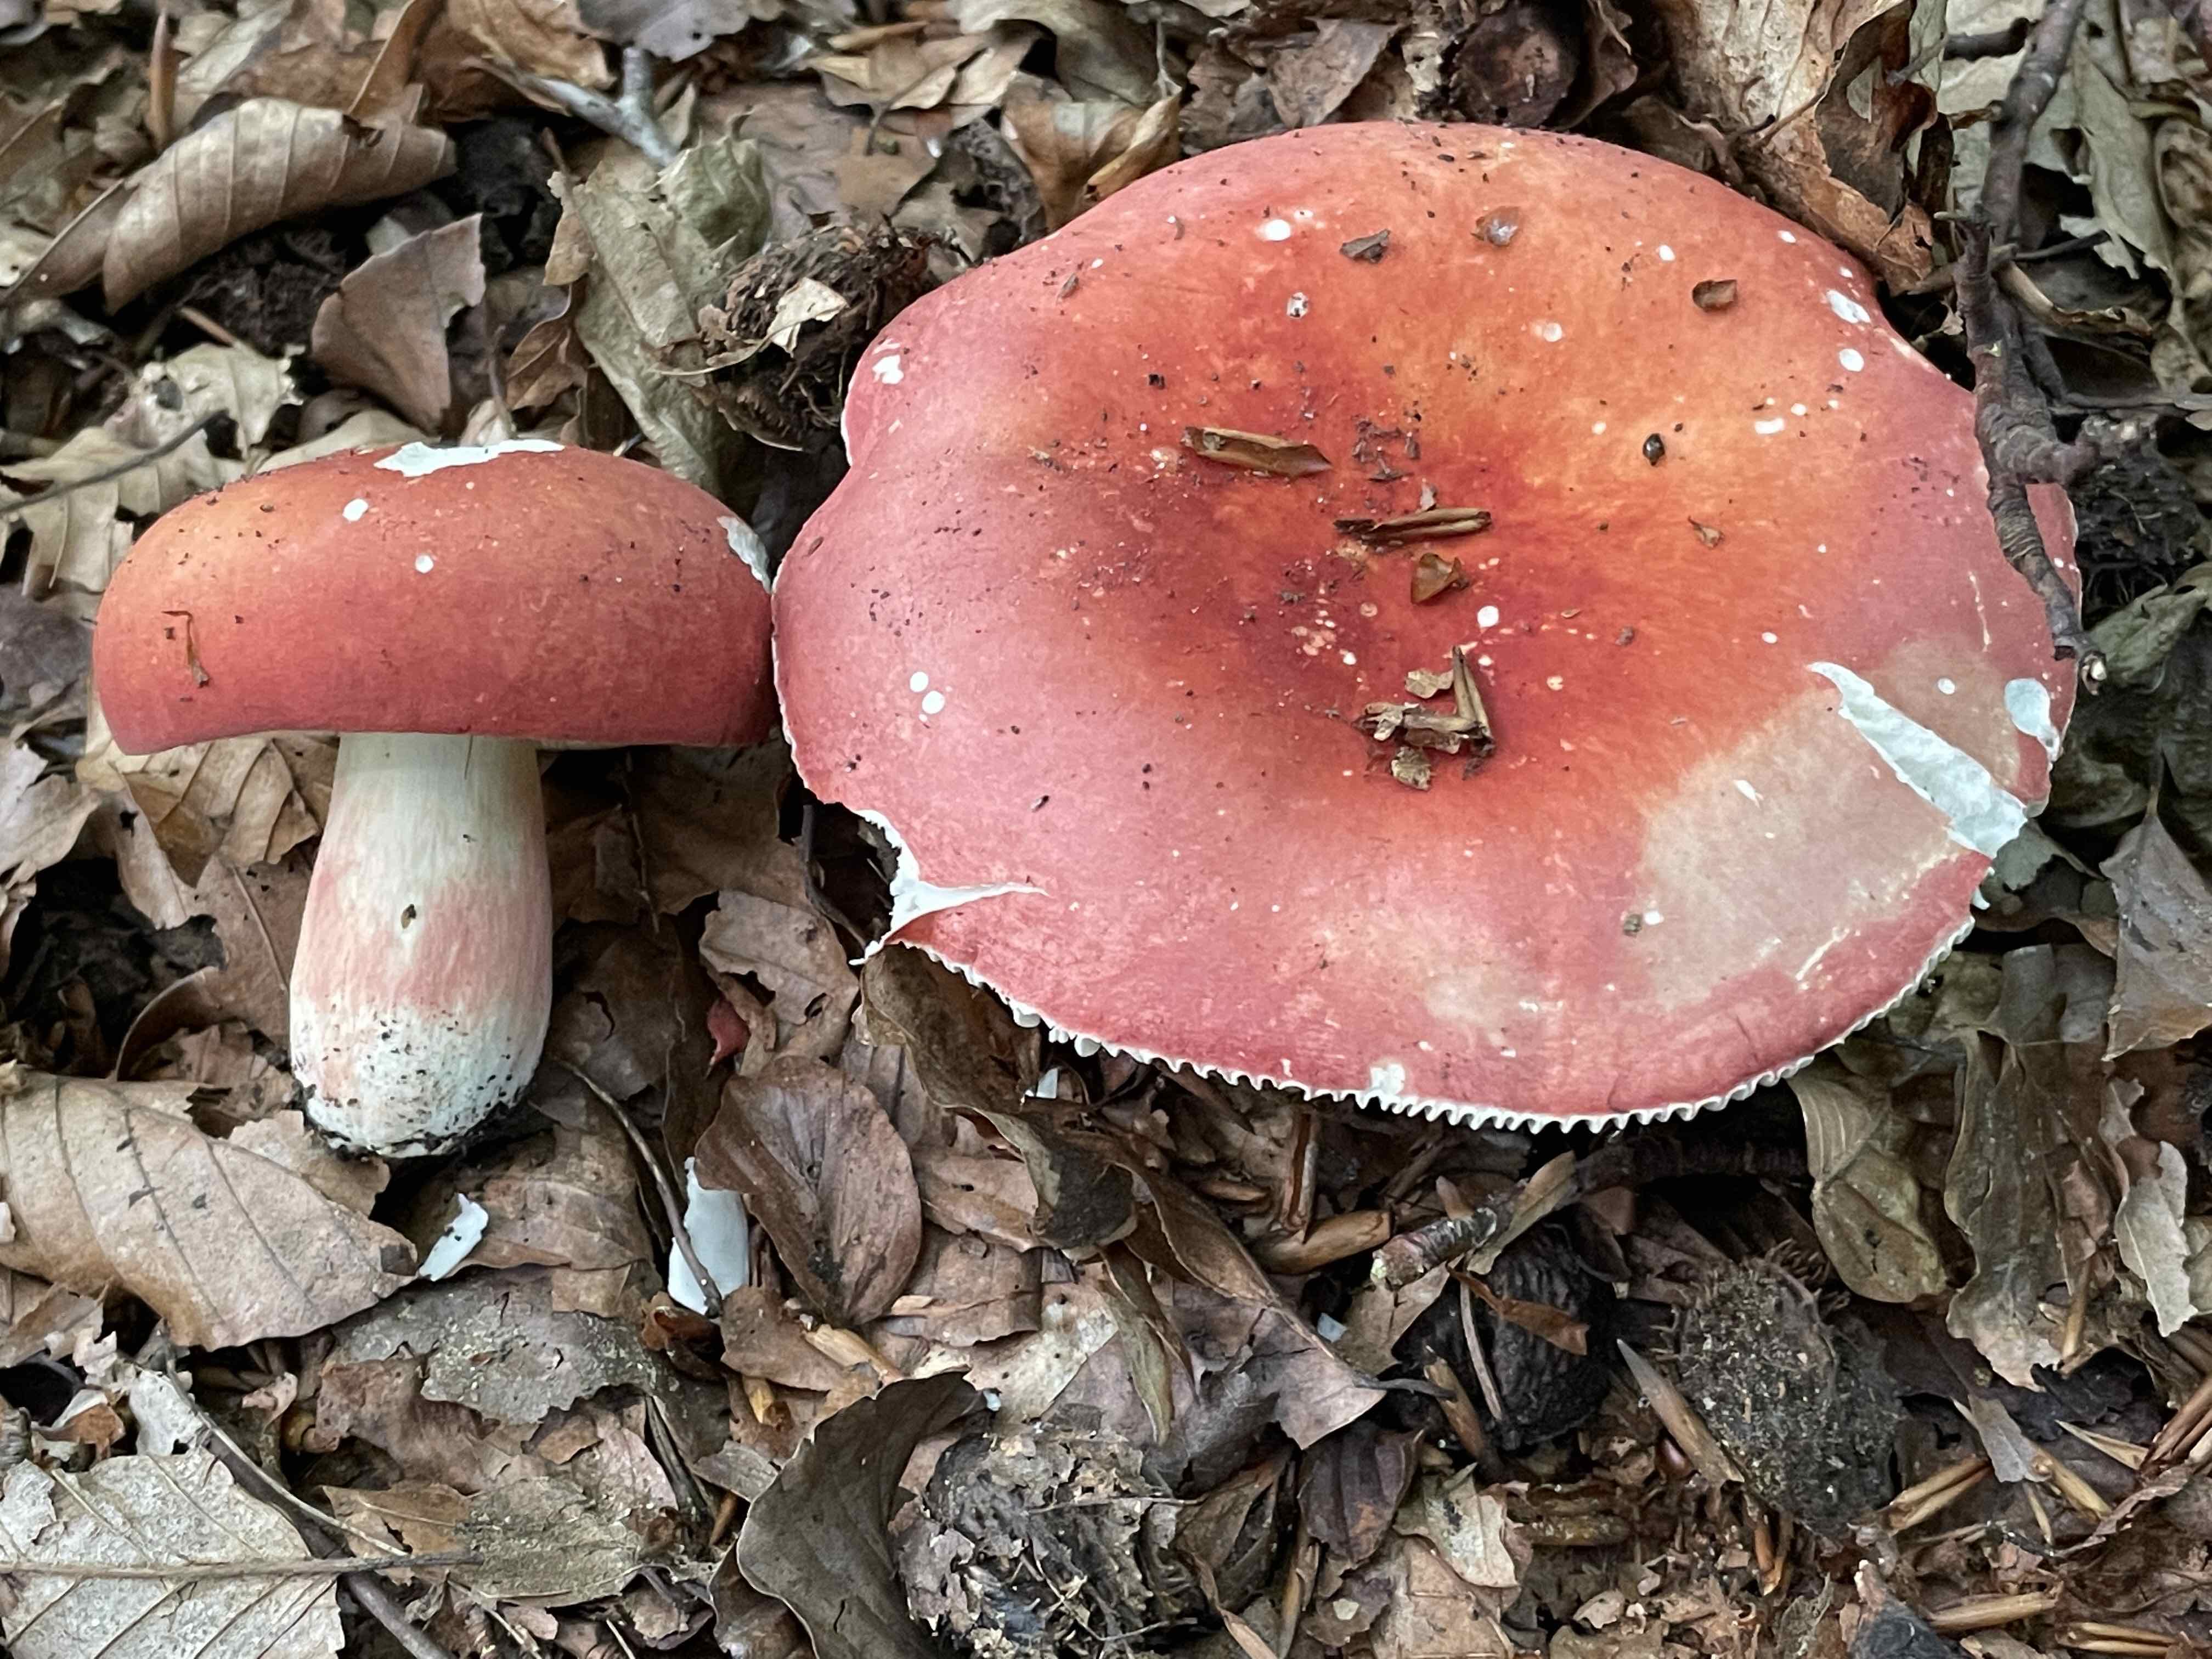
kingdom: Fungi
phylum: Basidiomycota
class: Agaricomycetes
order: Russulales
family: Russulaceae
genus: Russula
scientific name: Russula rosea
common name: fastkødet skørhat
